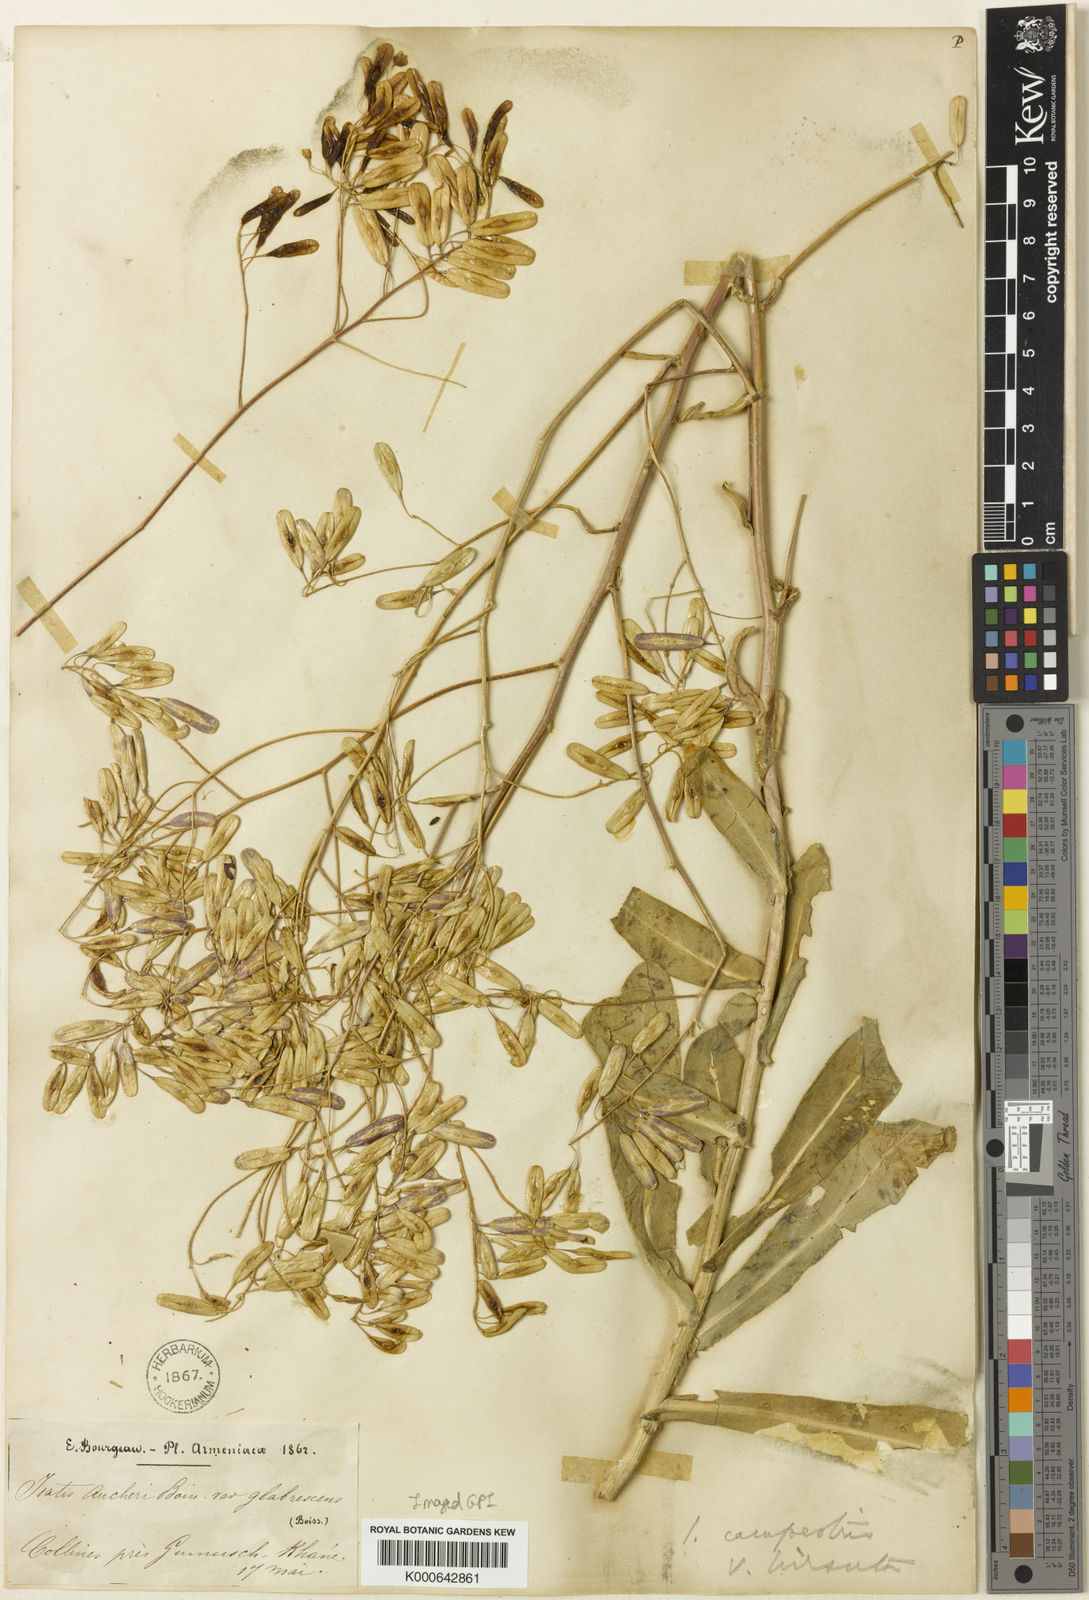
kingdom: Plantae
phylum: Tracheophyta
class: Magnoliopsida
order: Brassicales
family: Brassicaceae
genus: Isatis
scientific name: Isatis glauca
